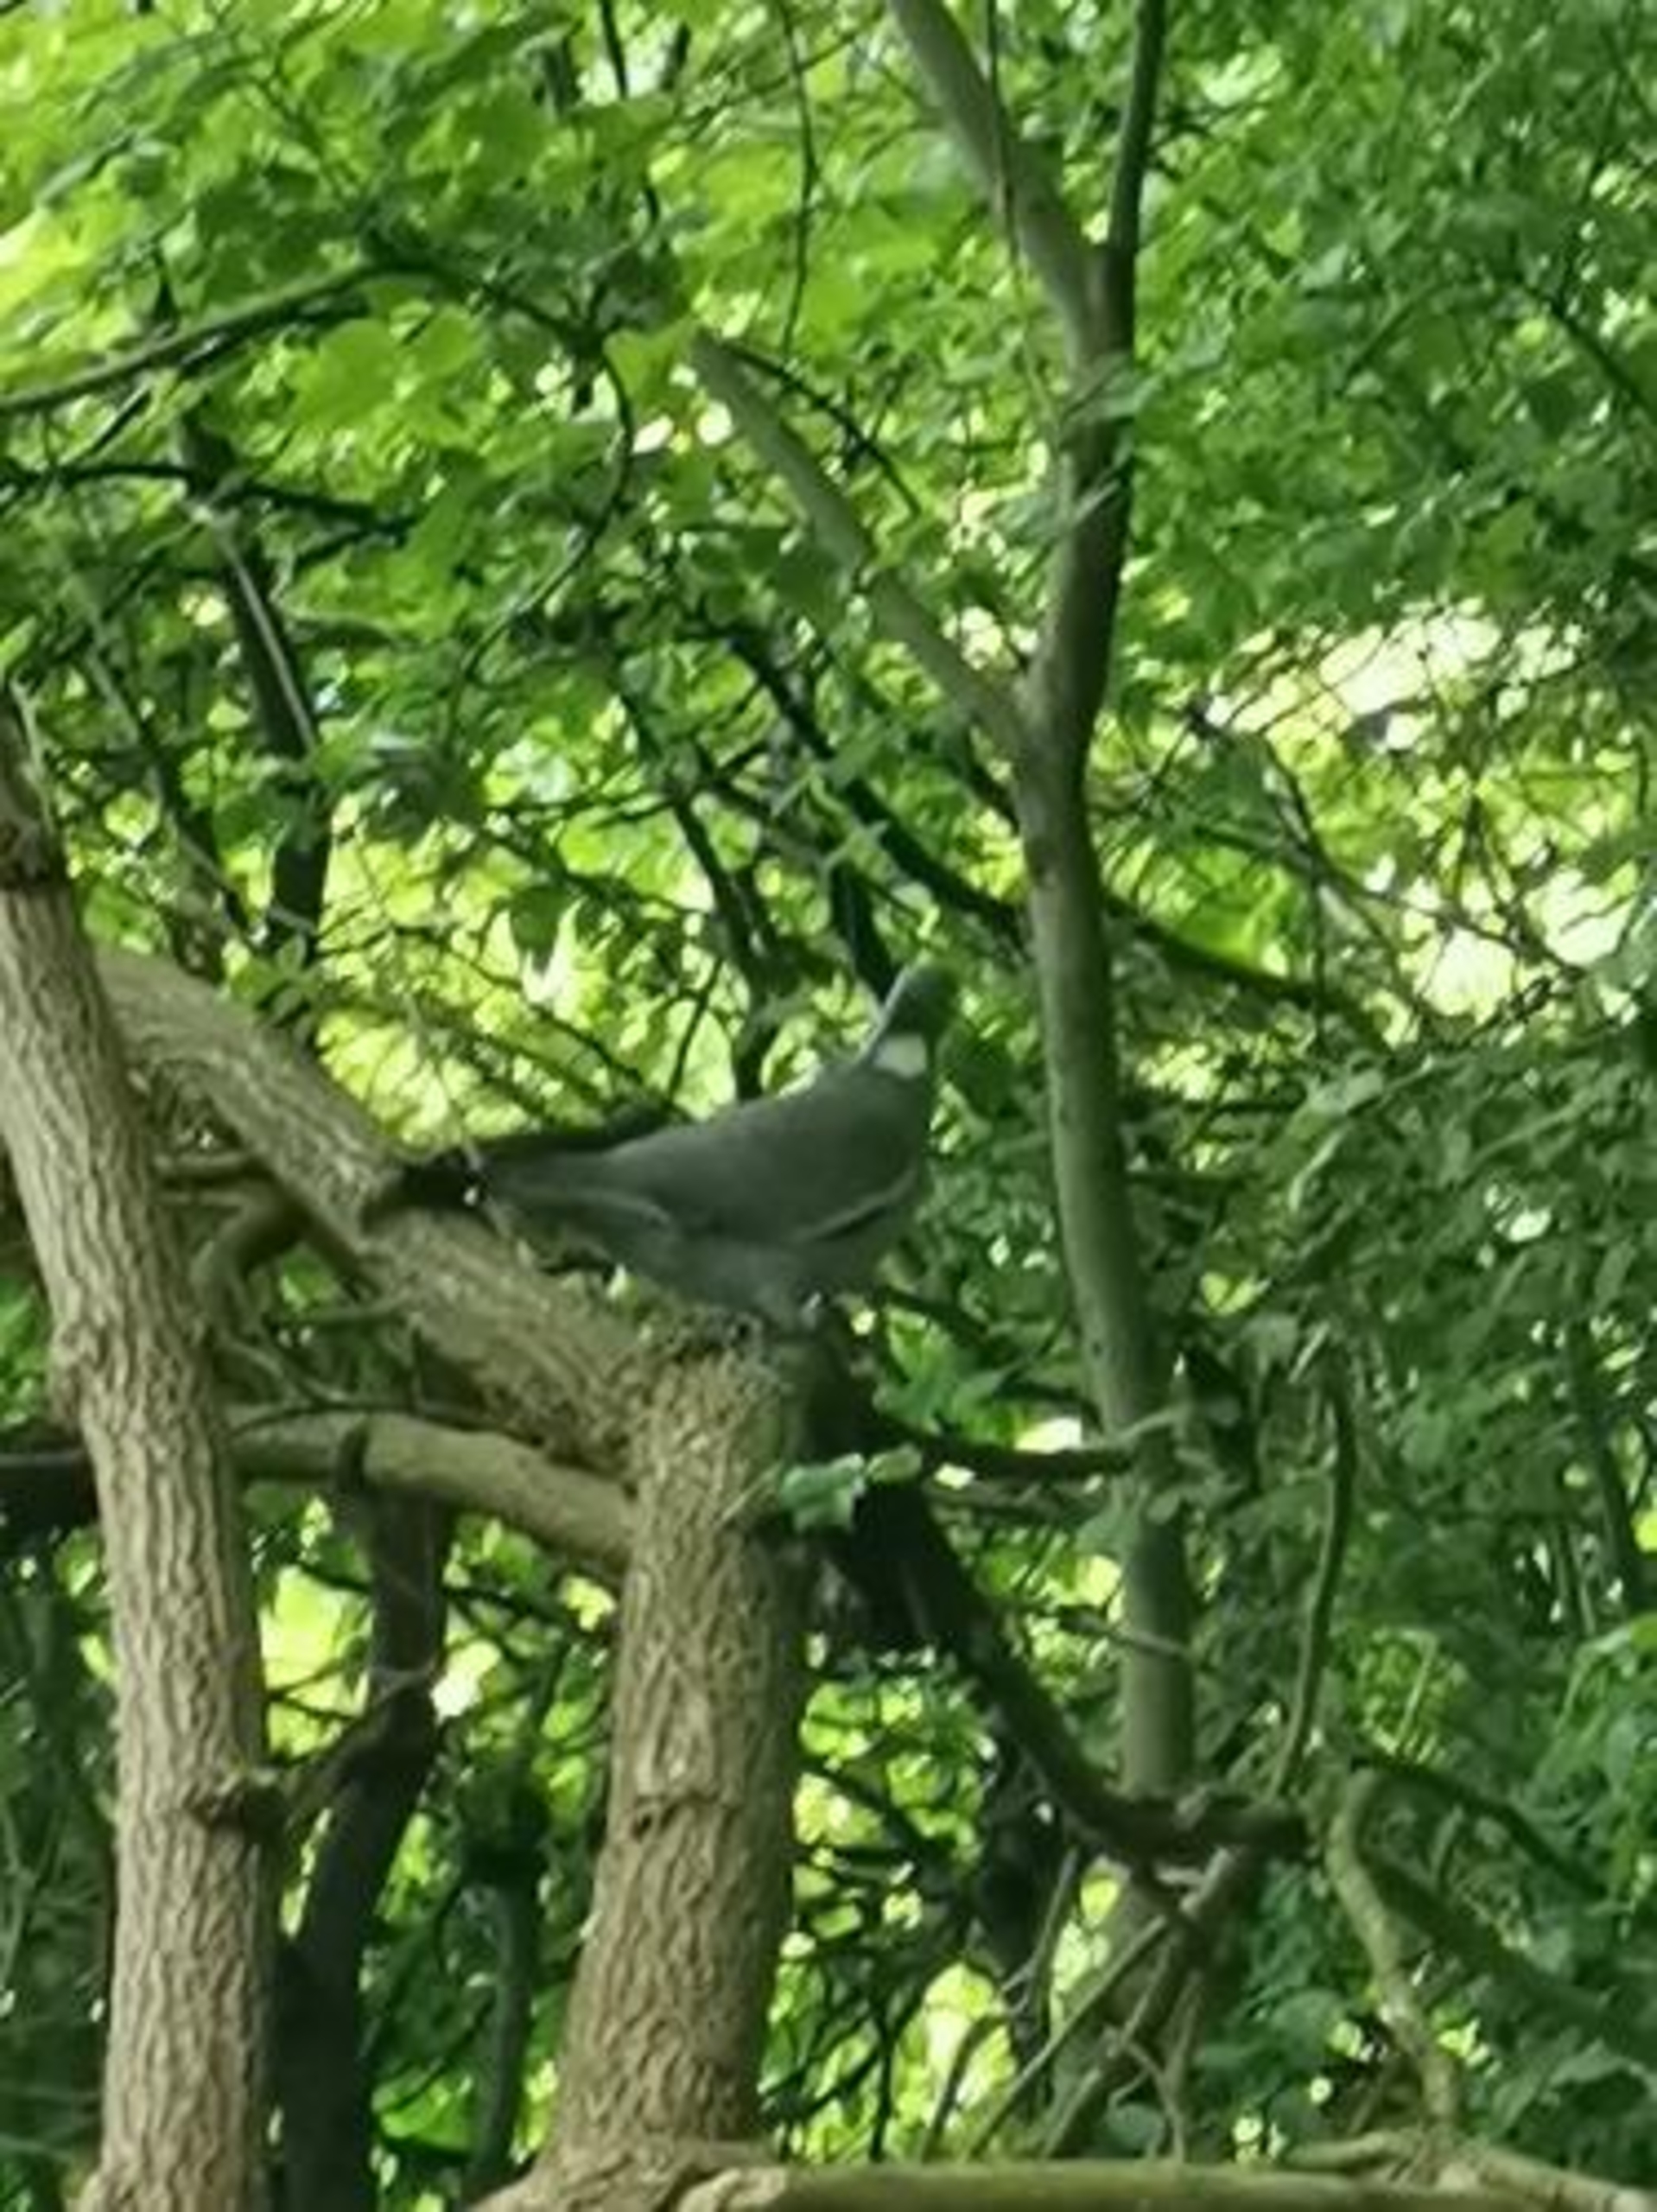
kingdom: Animalia
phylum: Chordata
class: Aves
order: Columbiformes
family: Columbidae
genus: Columba
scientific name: Columba palumbus
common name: Ringdue
